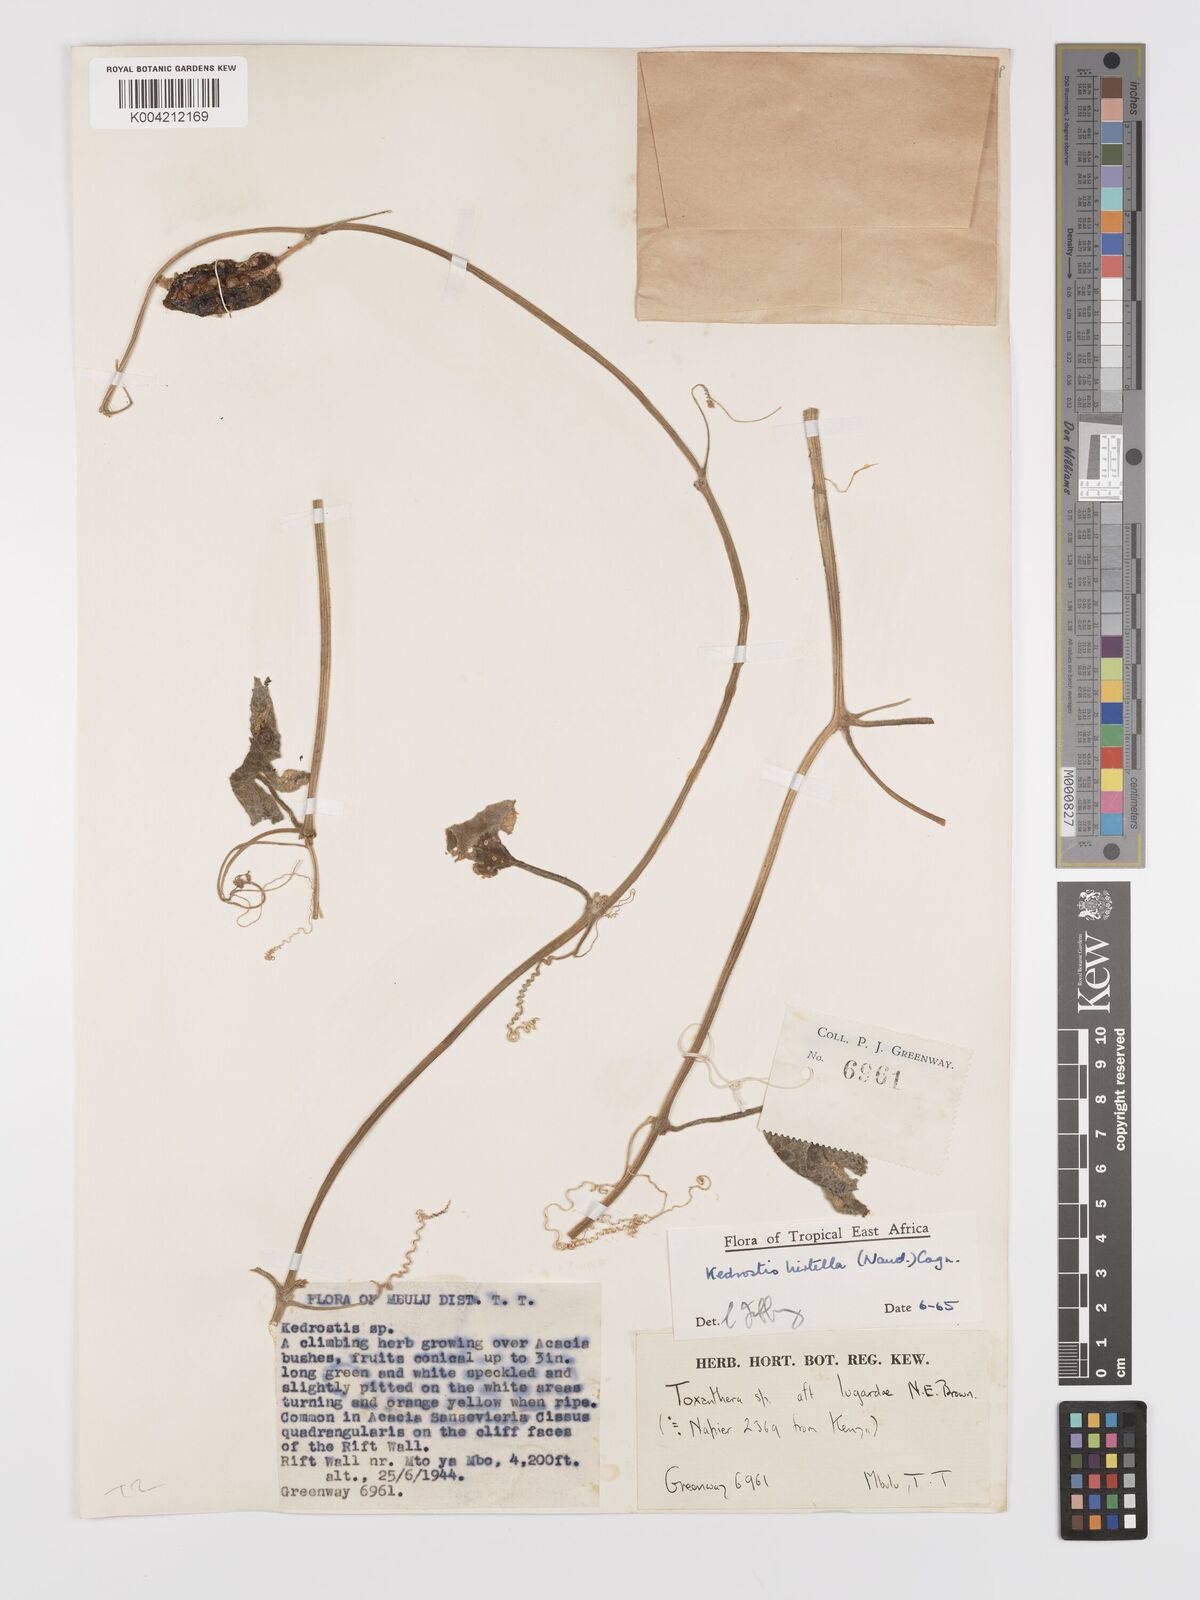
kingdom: Plantae
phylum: Tracheophyta
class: Magnoliopsida
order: Cucurbitales
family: Cucurbitaceae
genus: Kedrostis
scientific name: Kedrostis leloja
